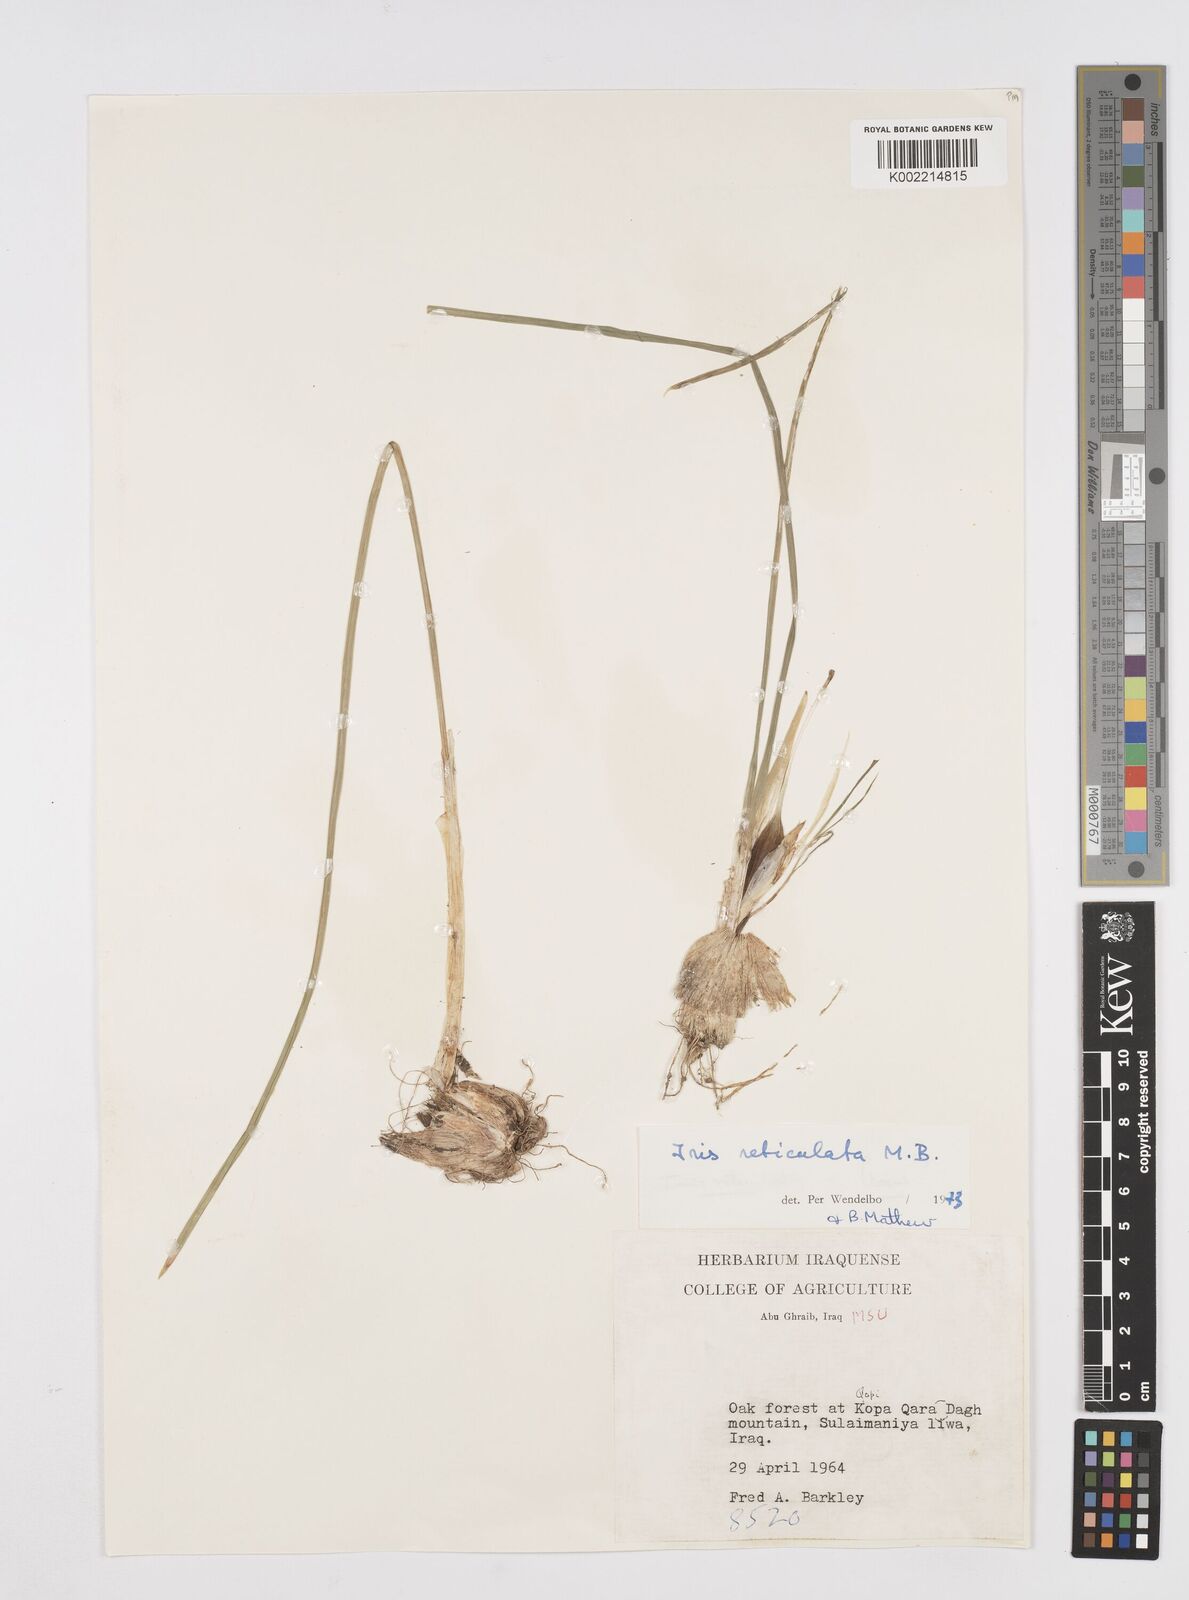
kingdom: Plantae
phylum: Tracheophyta
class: Liliopsida
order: Asparagales
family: Iridaceae
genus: Iris
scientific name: Iris reticulata
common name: Netted iris
